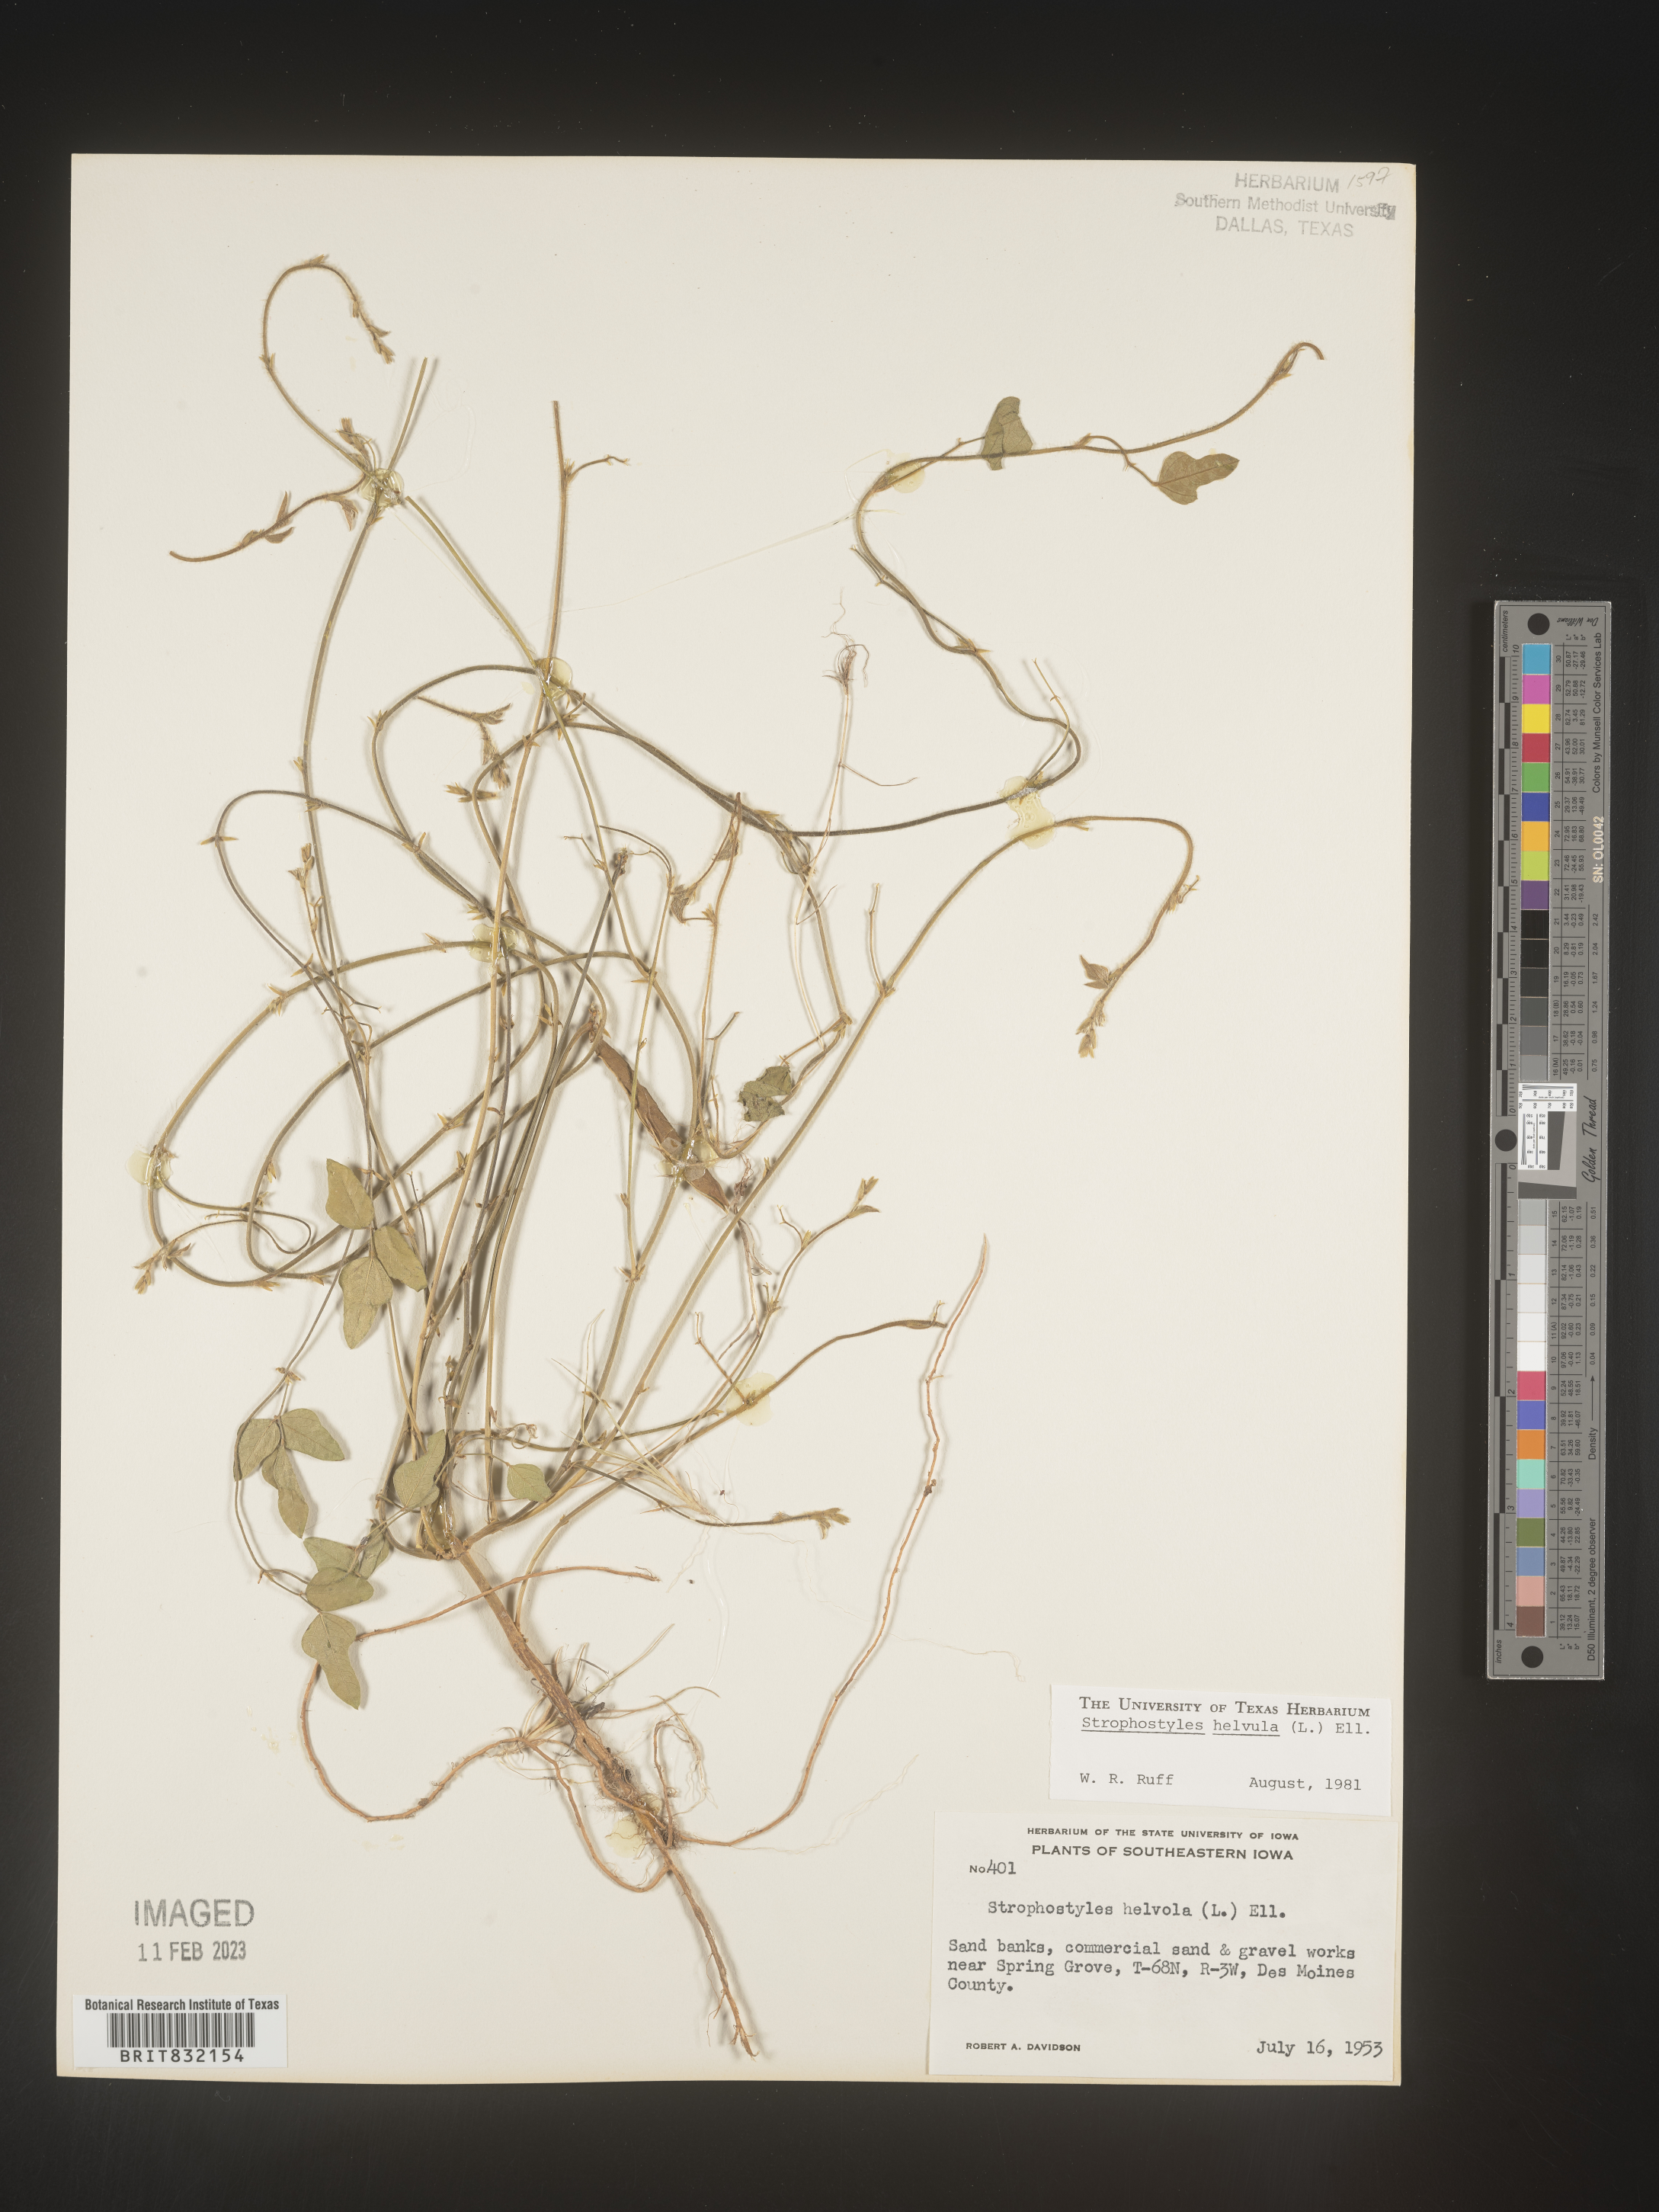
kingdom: Plantae
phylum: Tracheophyta
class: Magnoliopsida
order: Fabales
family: Fabaceae
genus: Strophostyles
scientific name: Strophostyles helvola
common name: Trailing wild bean
